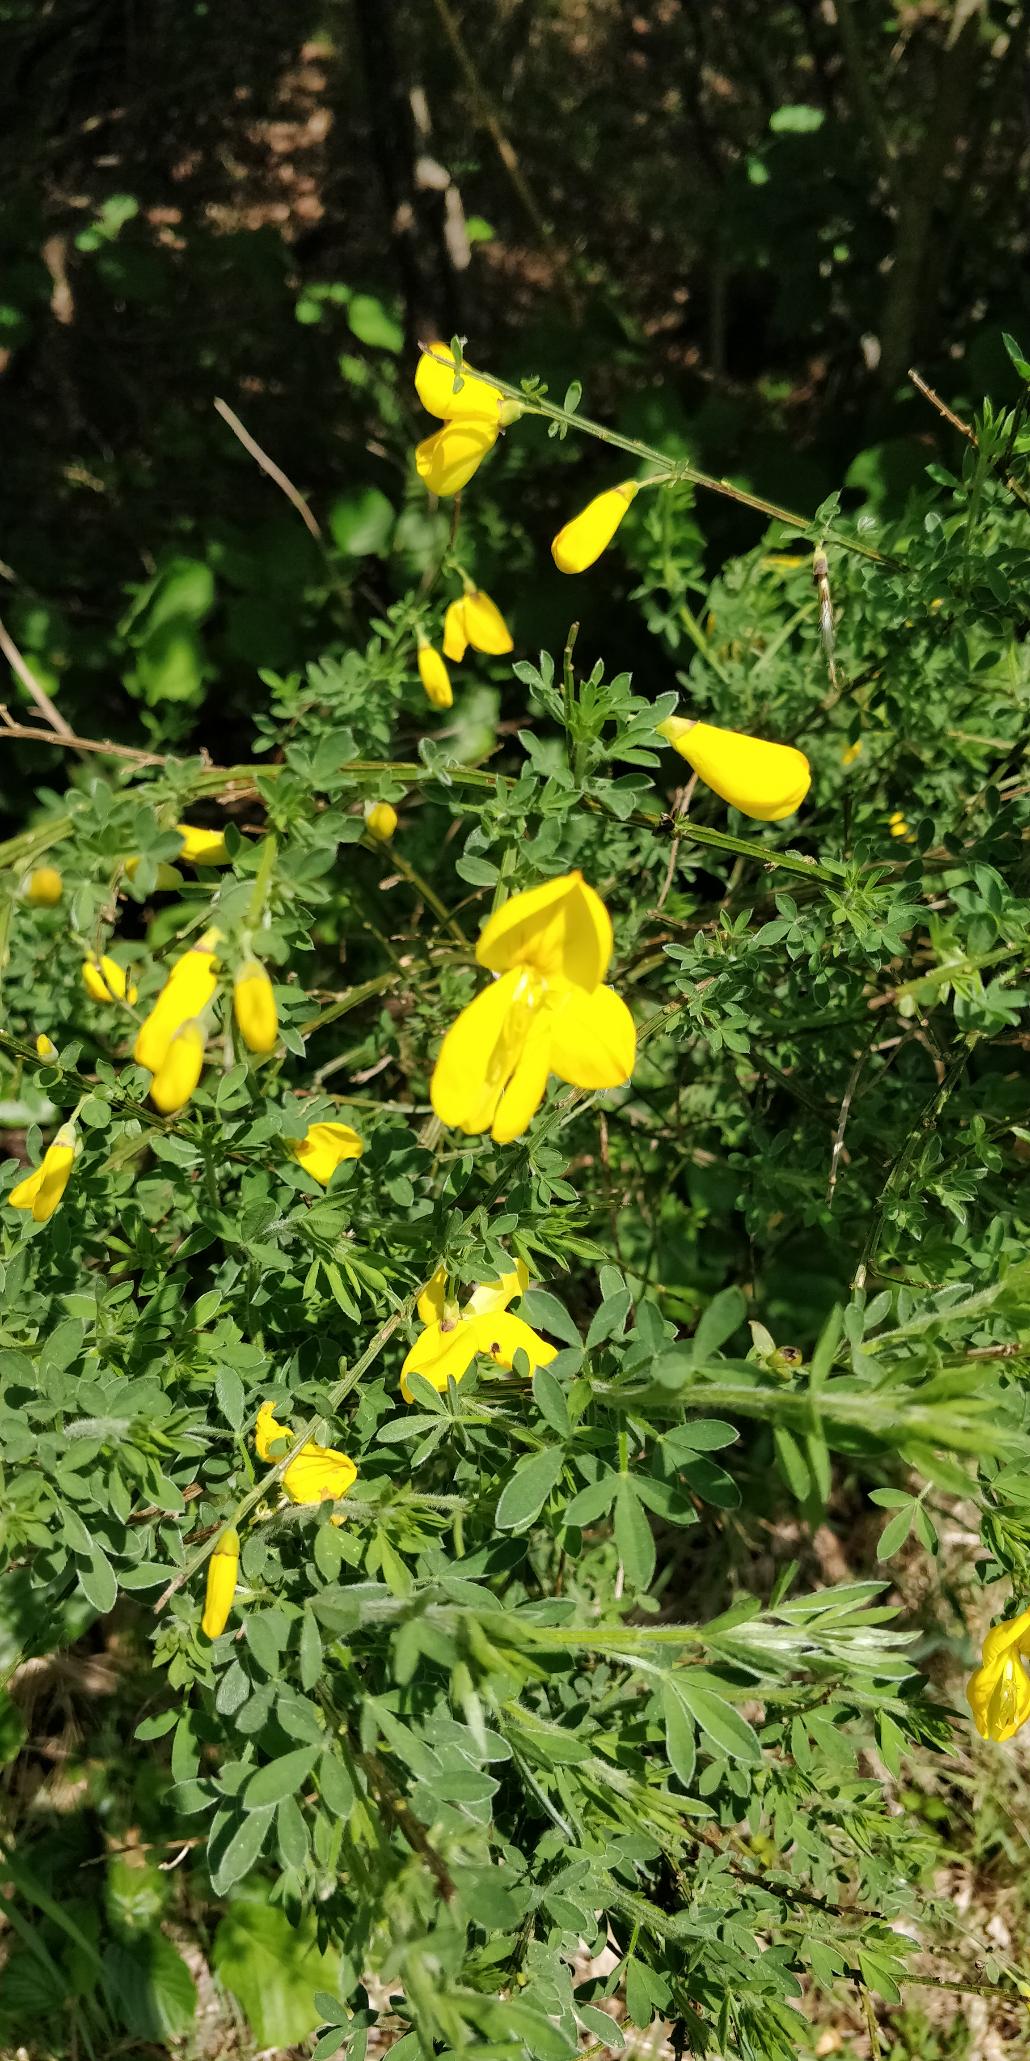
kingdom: Plantae
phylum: Tracheophyta
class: Magnoliopsida
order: Fabales
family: Fabaceae
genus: Cytisus
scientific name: Cytisus scoparius
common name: Almindelig gyvel
